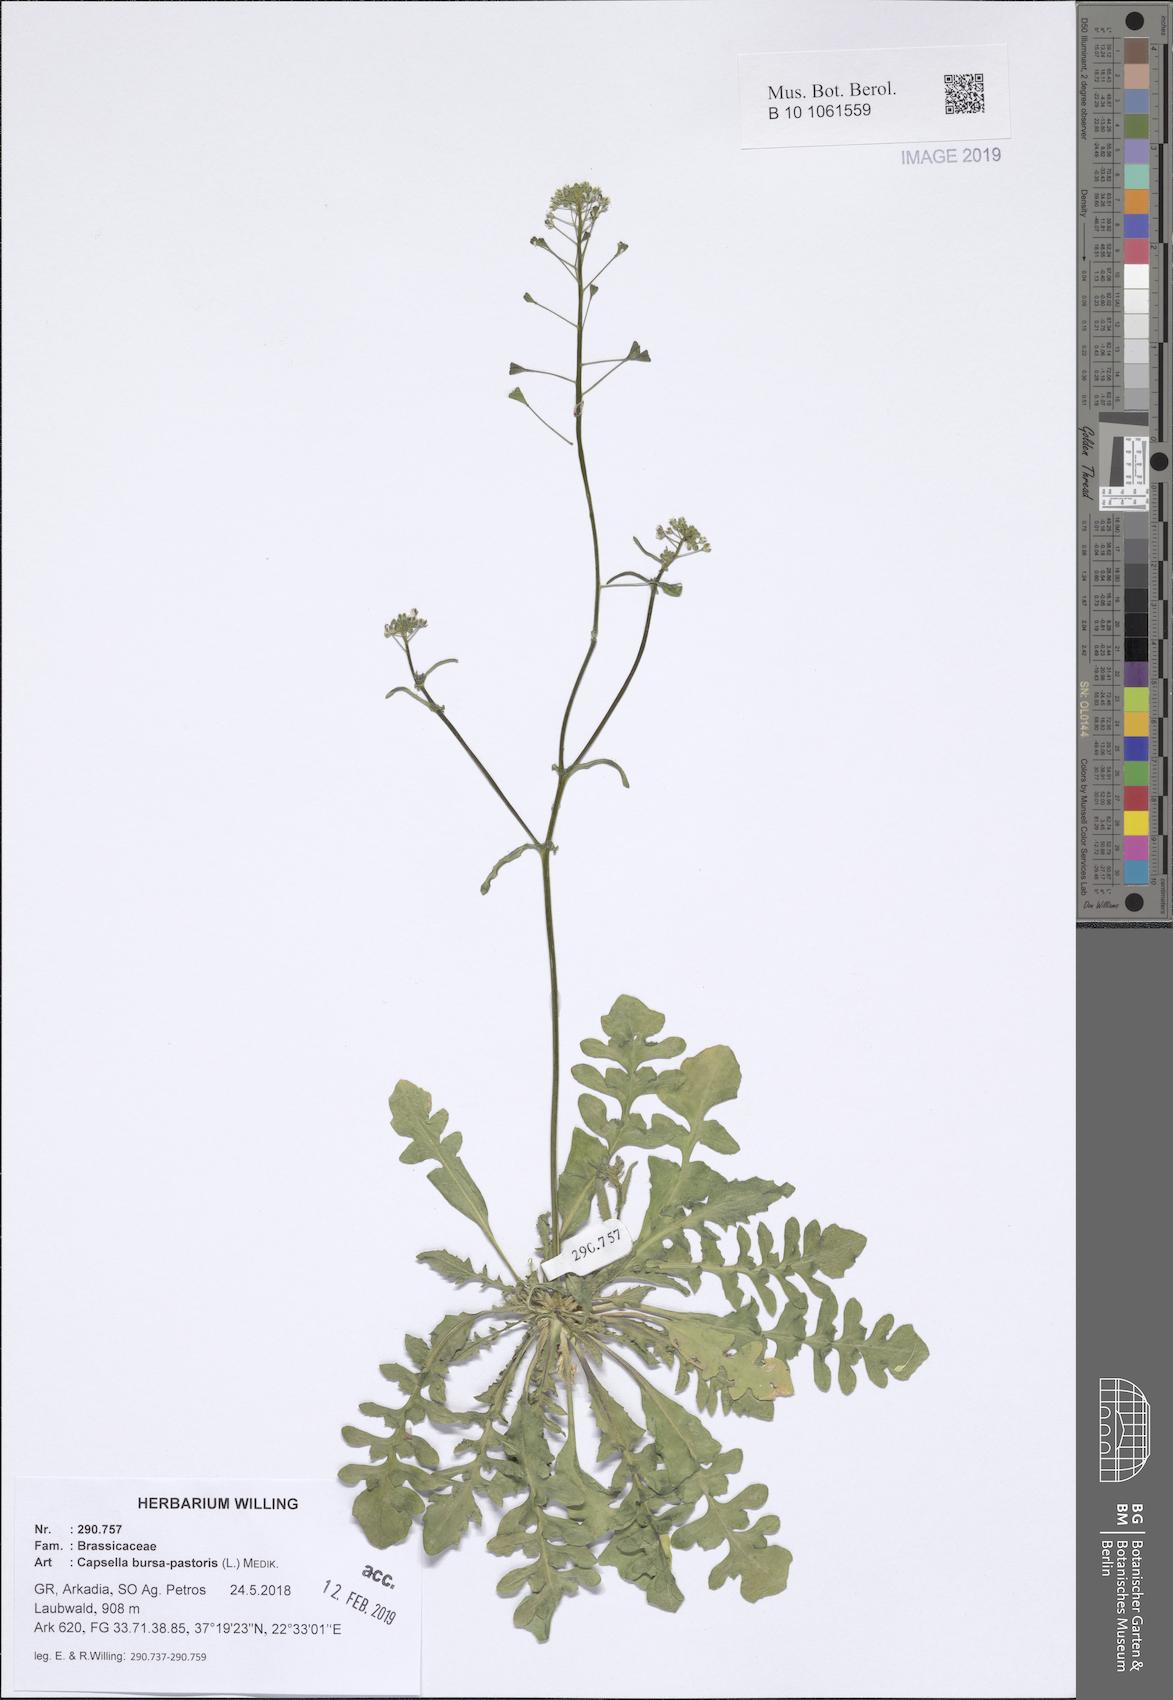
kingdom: Plantae
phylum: Tracheophyta
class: Magnoliopsida
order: Brassicales
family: Brassicaceae
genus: Capsella
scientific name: Capsella bursa-pastoris
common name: Shepherd's purse
